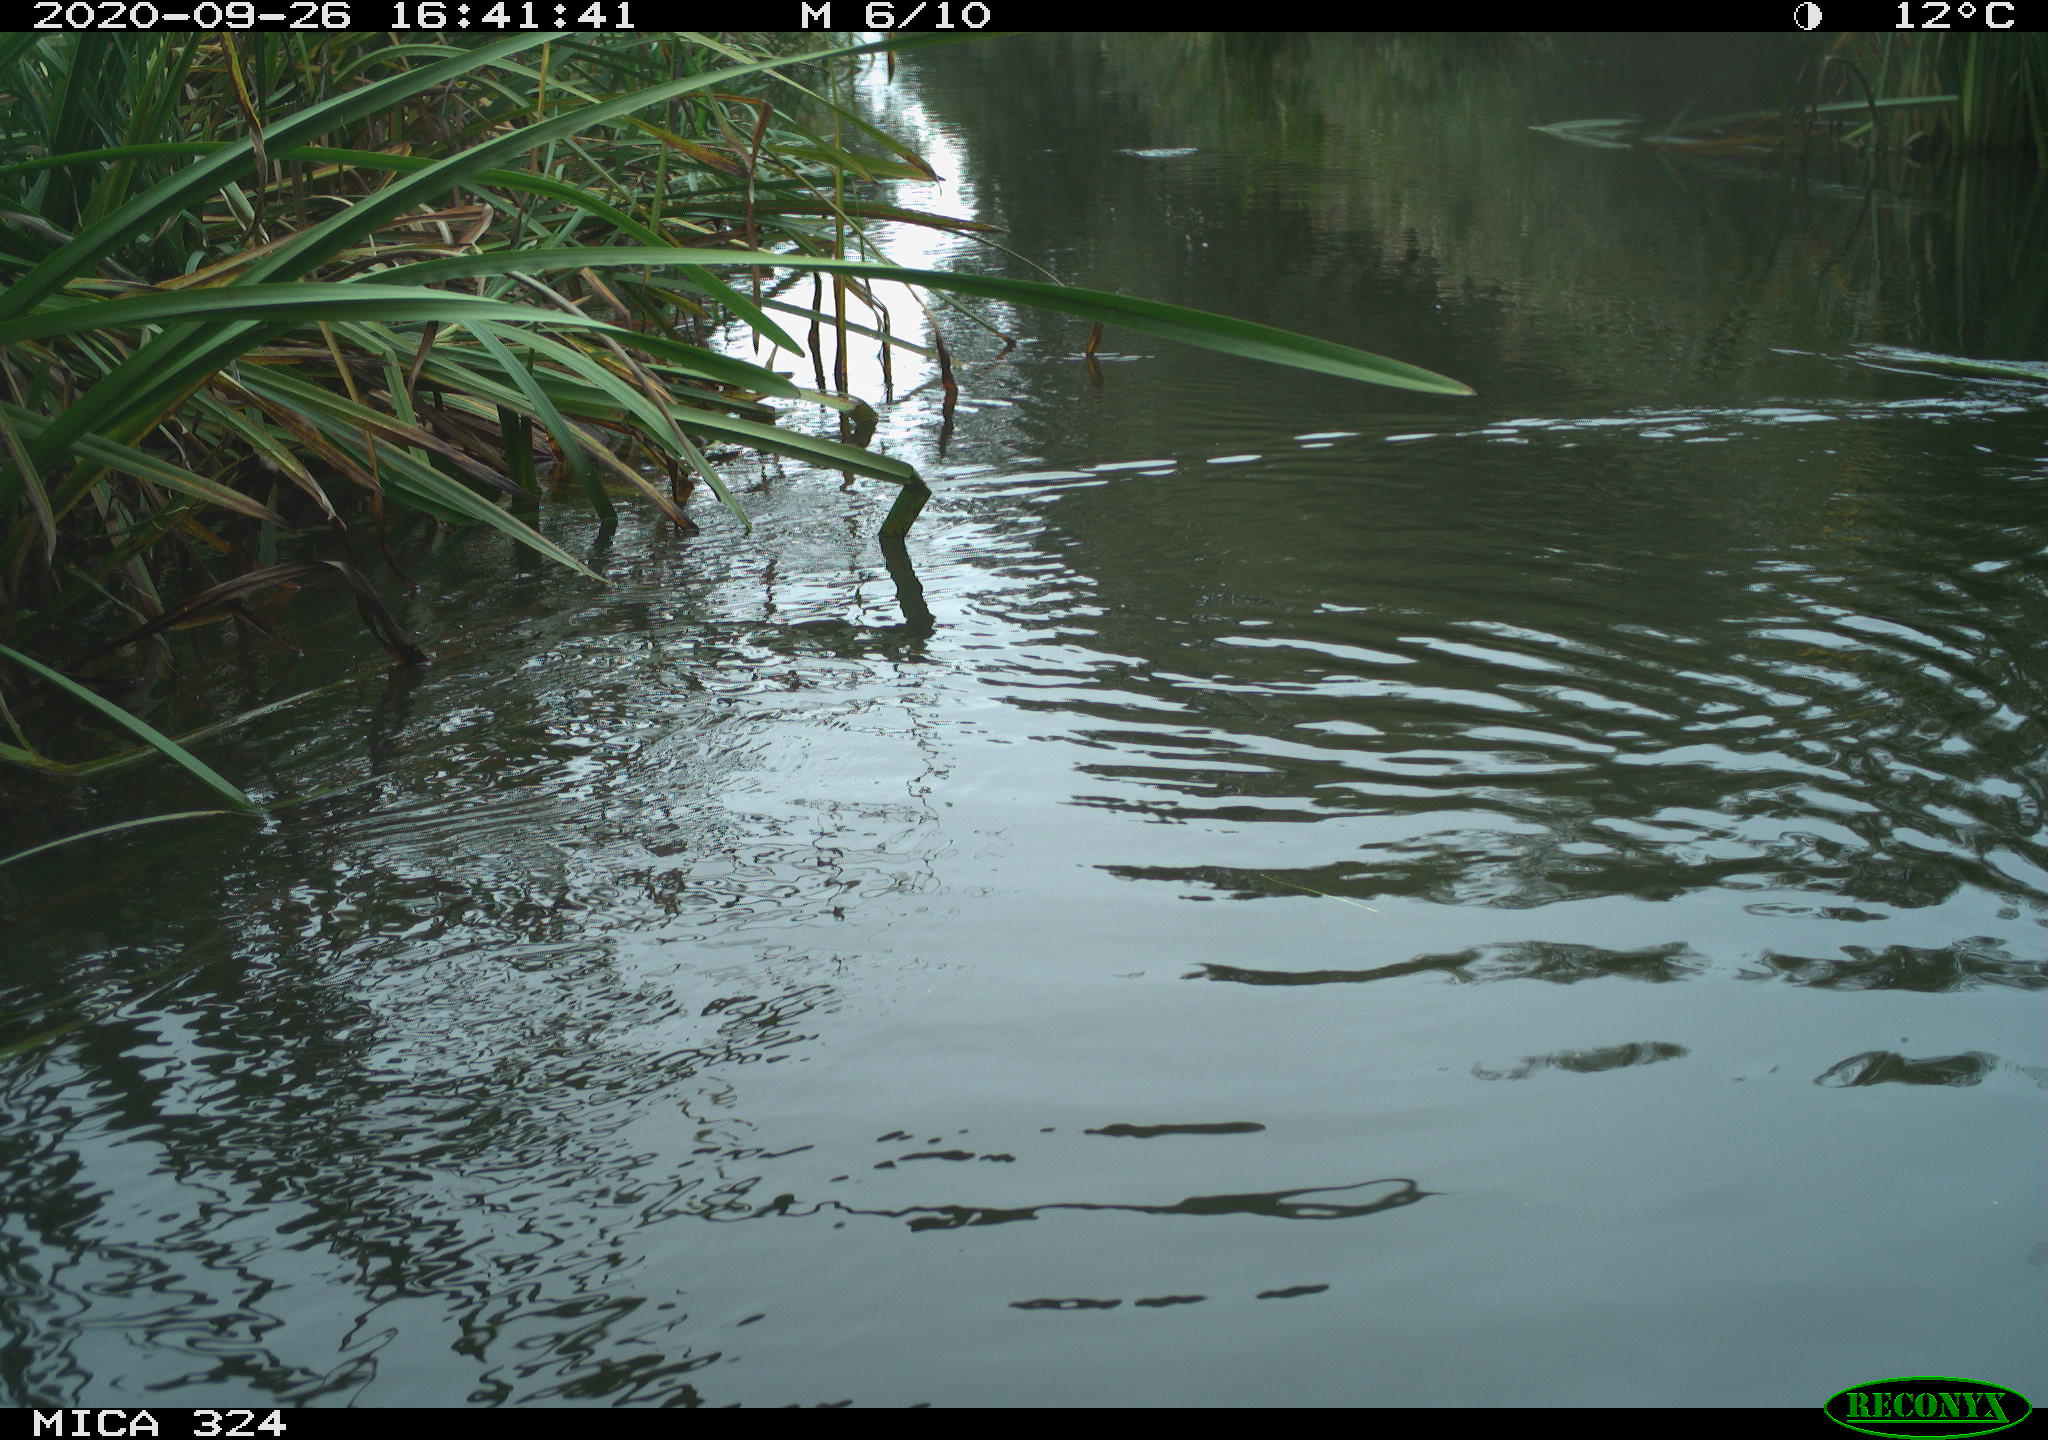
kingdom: Animalia
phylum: Chordata
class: Mammalia
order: Rodentia
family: Cricetidae
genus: Ondatra
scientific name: Ondatra zibethicus
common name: Muskrat
